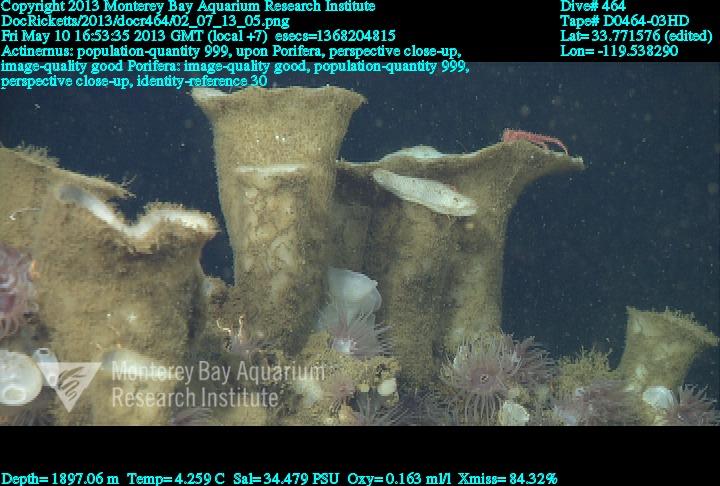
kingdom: Animalia
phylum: Porifera
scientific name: Porifera
